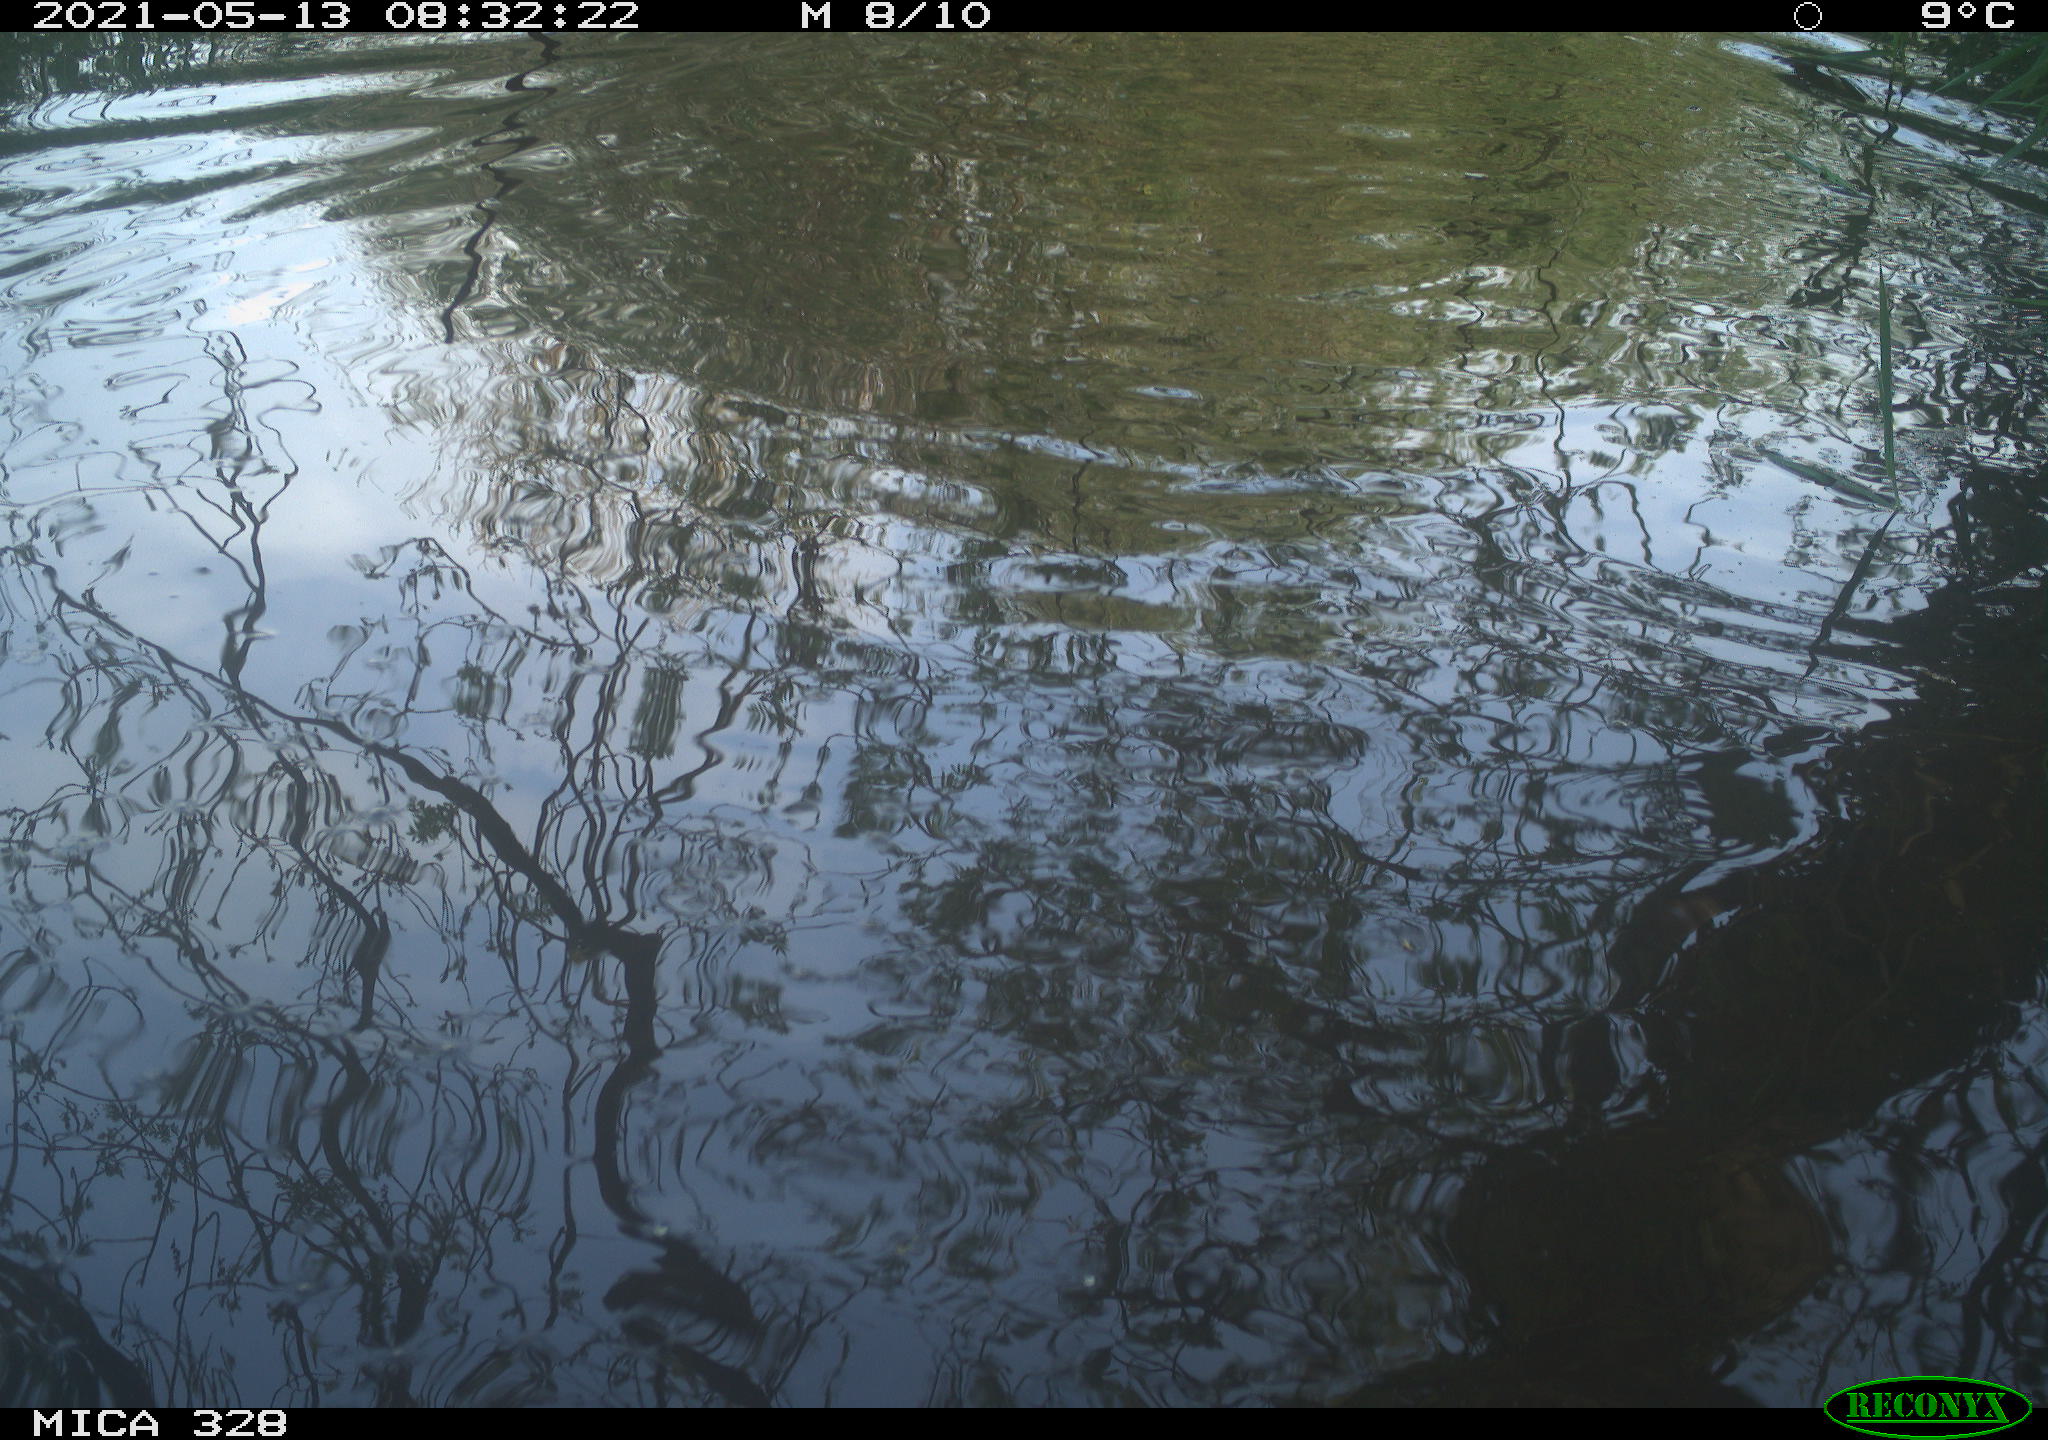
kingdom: Animalia
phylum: Chordata
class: Mammalia
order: Rodentia
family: Cricetidae
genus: Ondatra
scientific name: Ondatra zibethicus
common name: Muskrat
